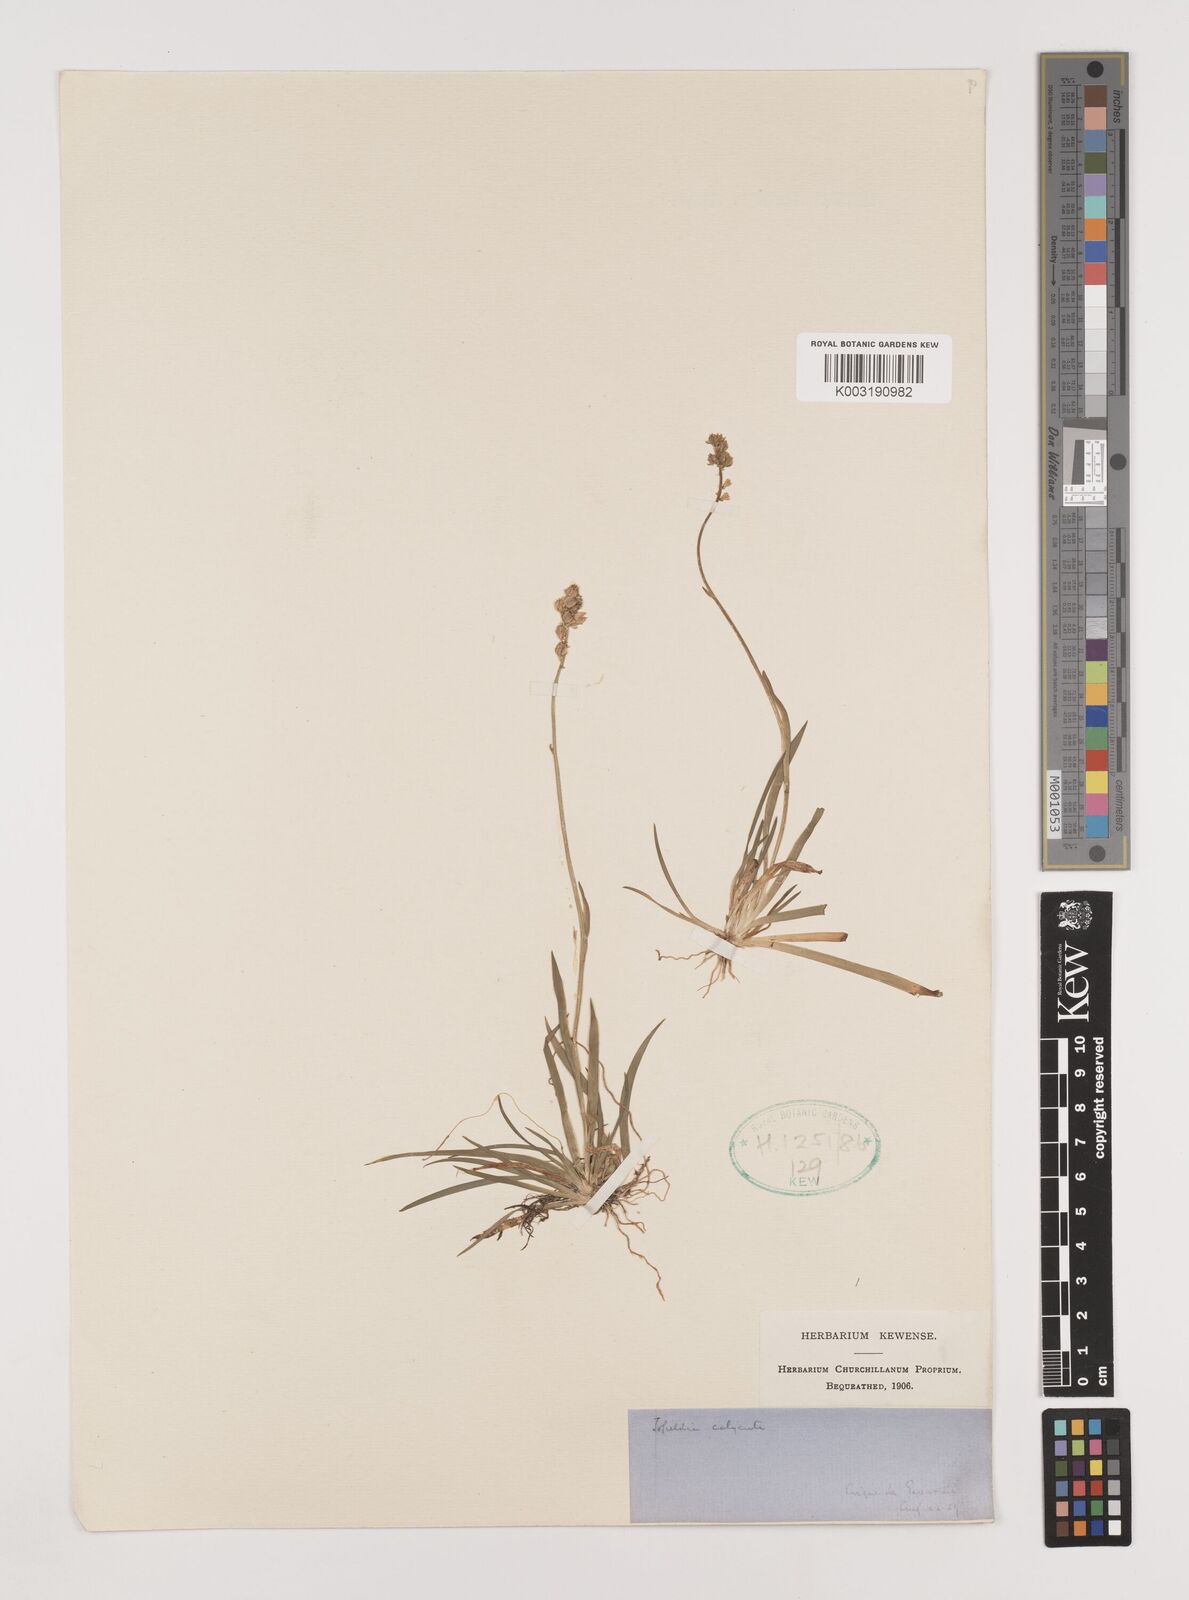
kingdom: Plantae
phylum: Tracheophyta
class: Liliopsida
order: Alismatales
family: Tofieldiaceae
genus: Tofieldia
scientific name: Tofieldia calyculata
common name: German-asphodel
